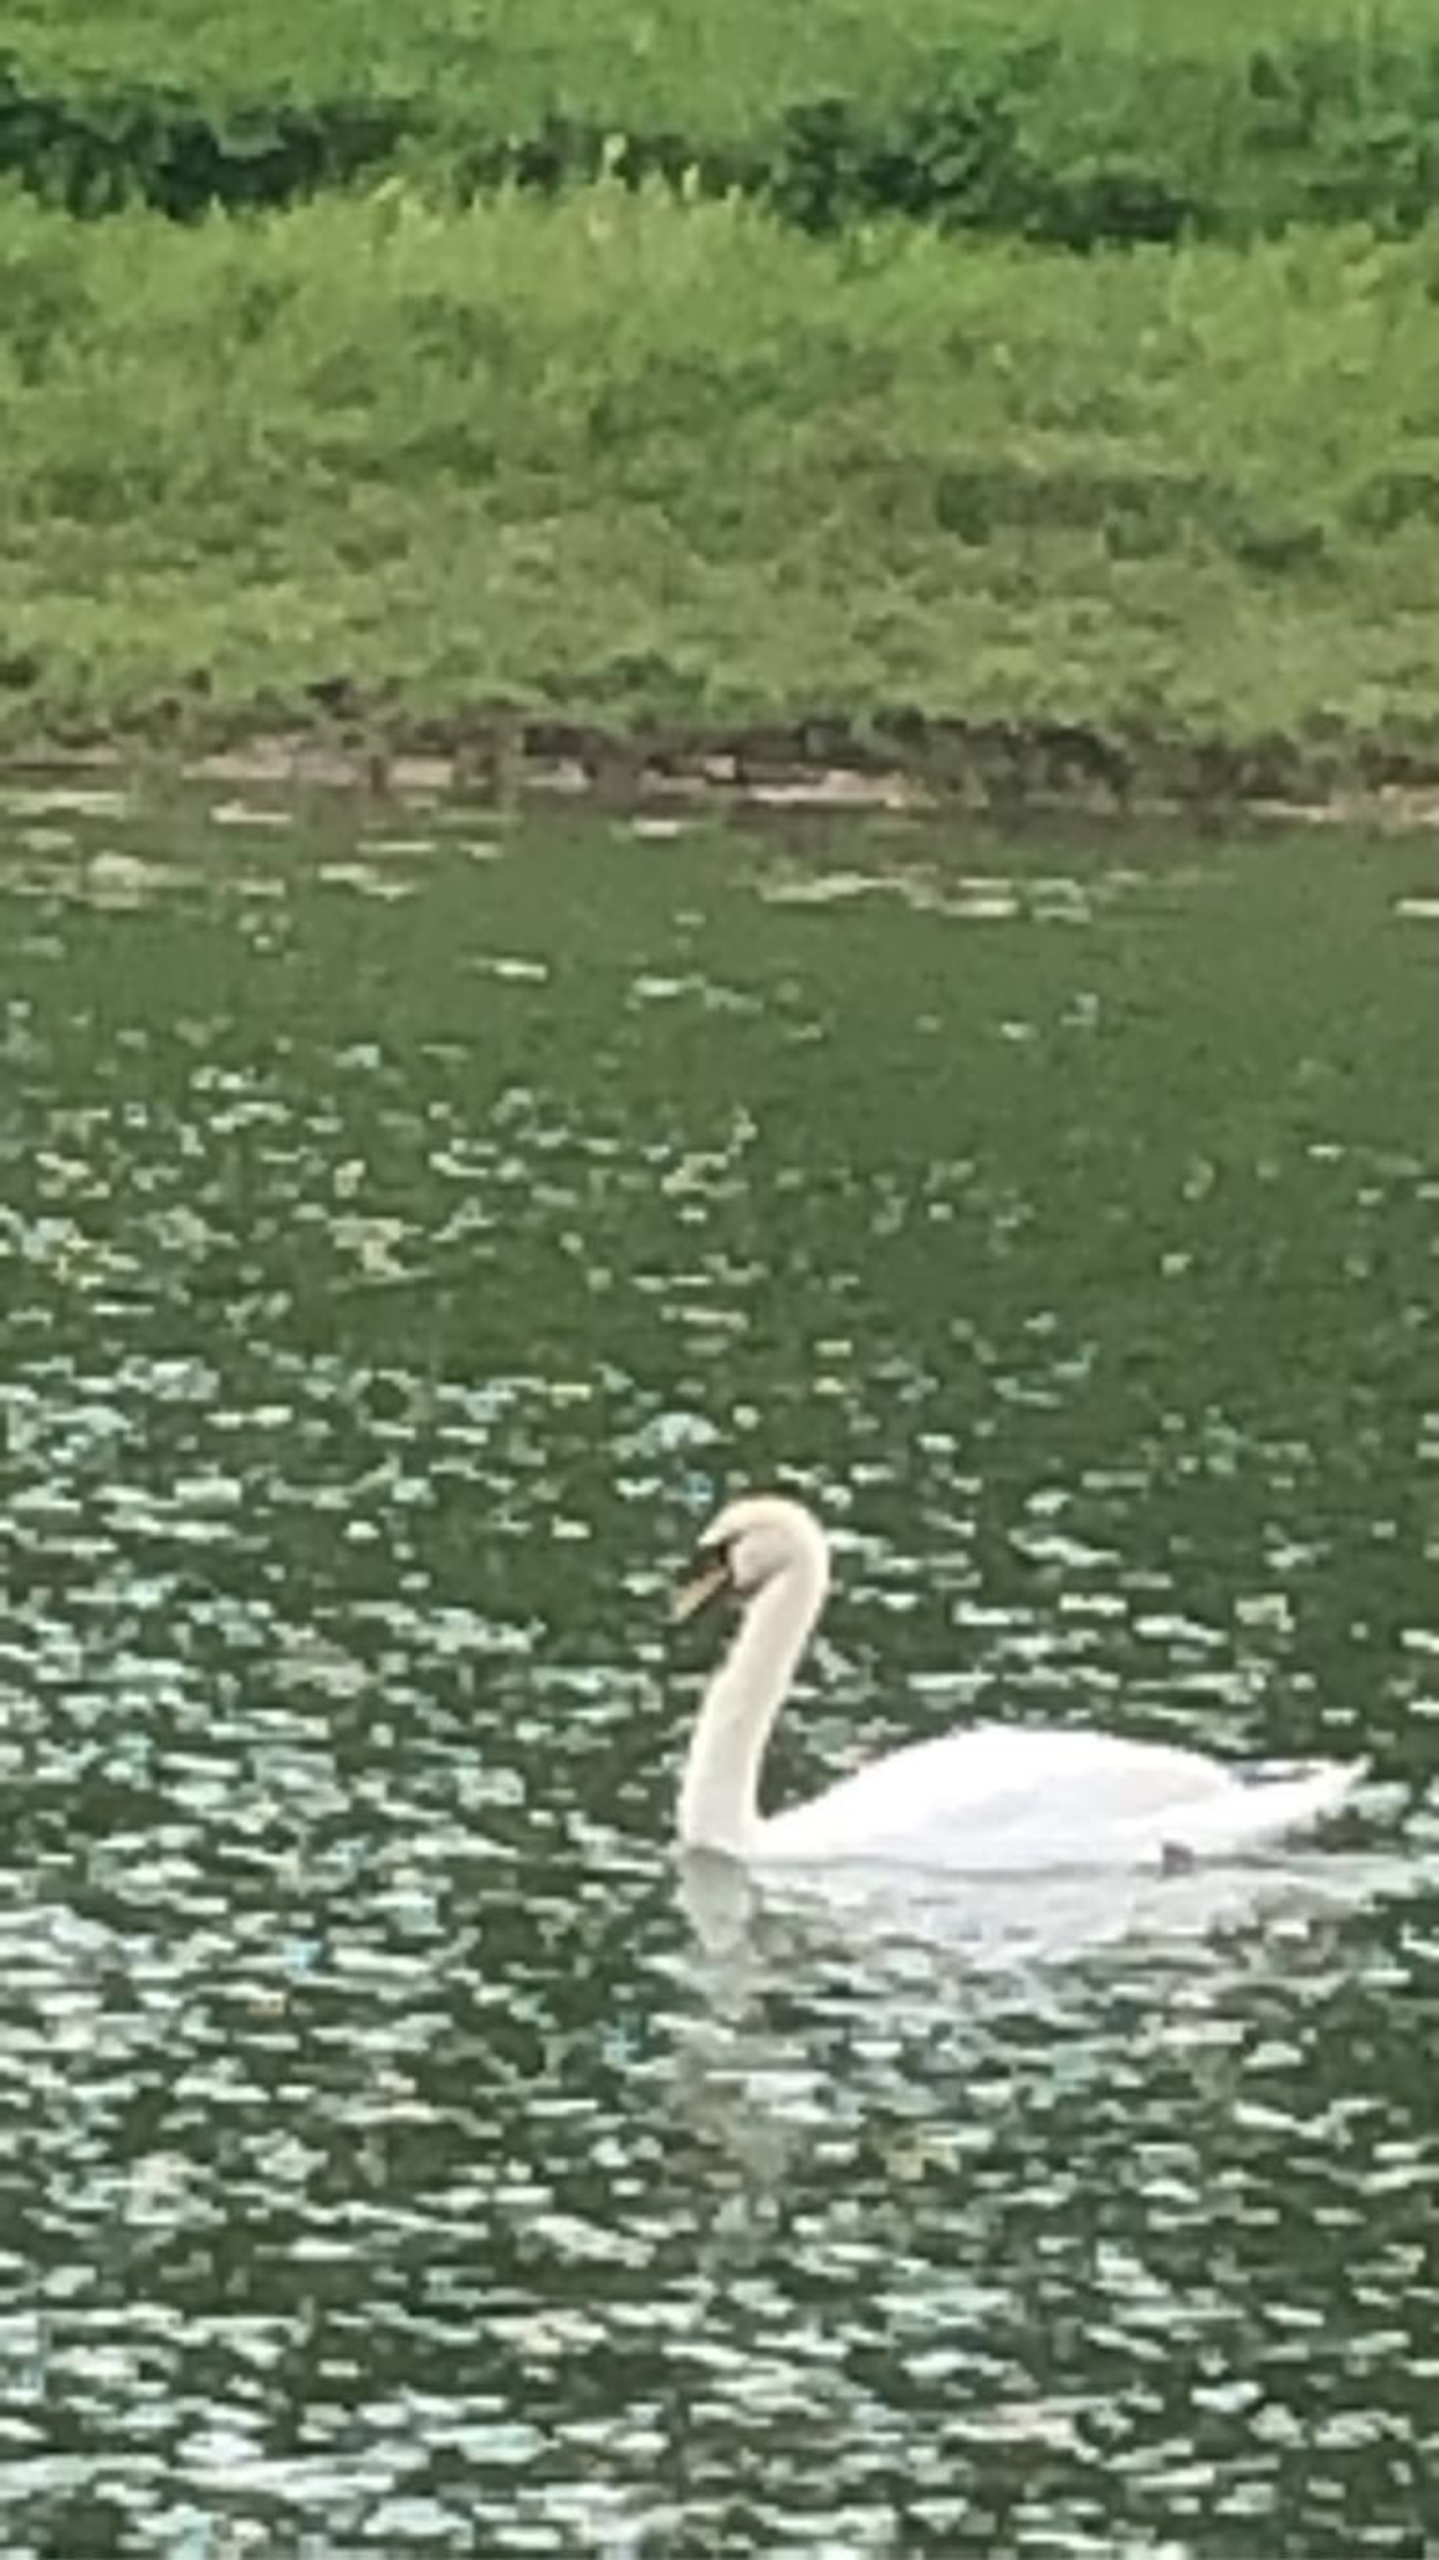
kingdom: Animalia
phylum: Chordata
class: Aves
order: Anseriformes
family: Anatidae
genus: Cygnus
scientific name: Cygnus olor
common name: Knopsvane
